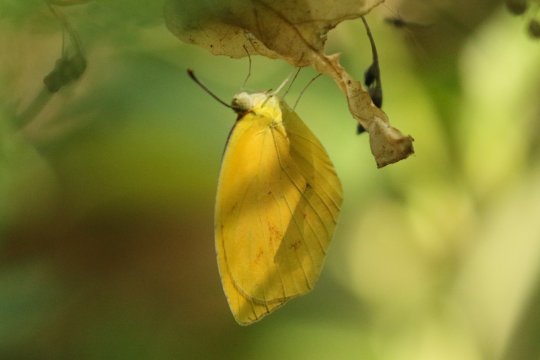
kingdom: Animalia
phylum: Arthropoda
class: Insecta
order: Lepidoptera
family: Pieridae
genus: Pyrisitia
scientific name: Pyrisitia proterpia
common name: Tailed Orange
